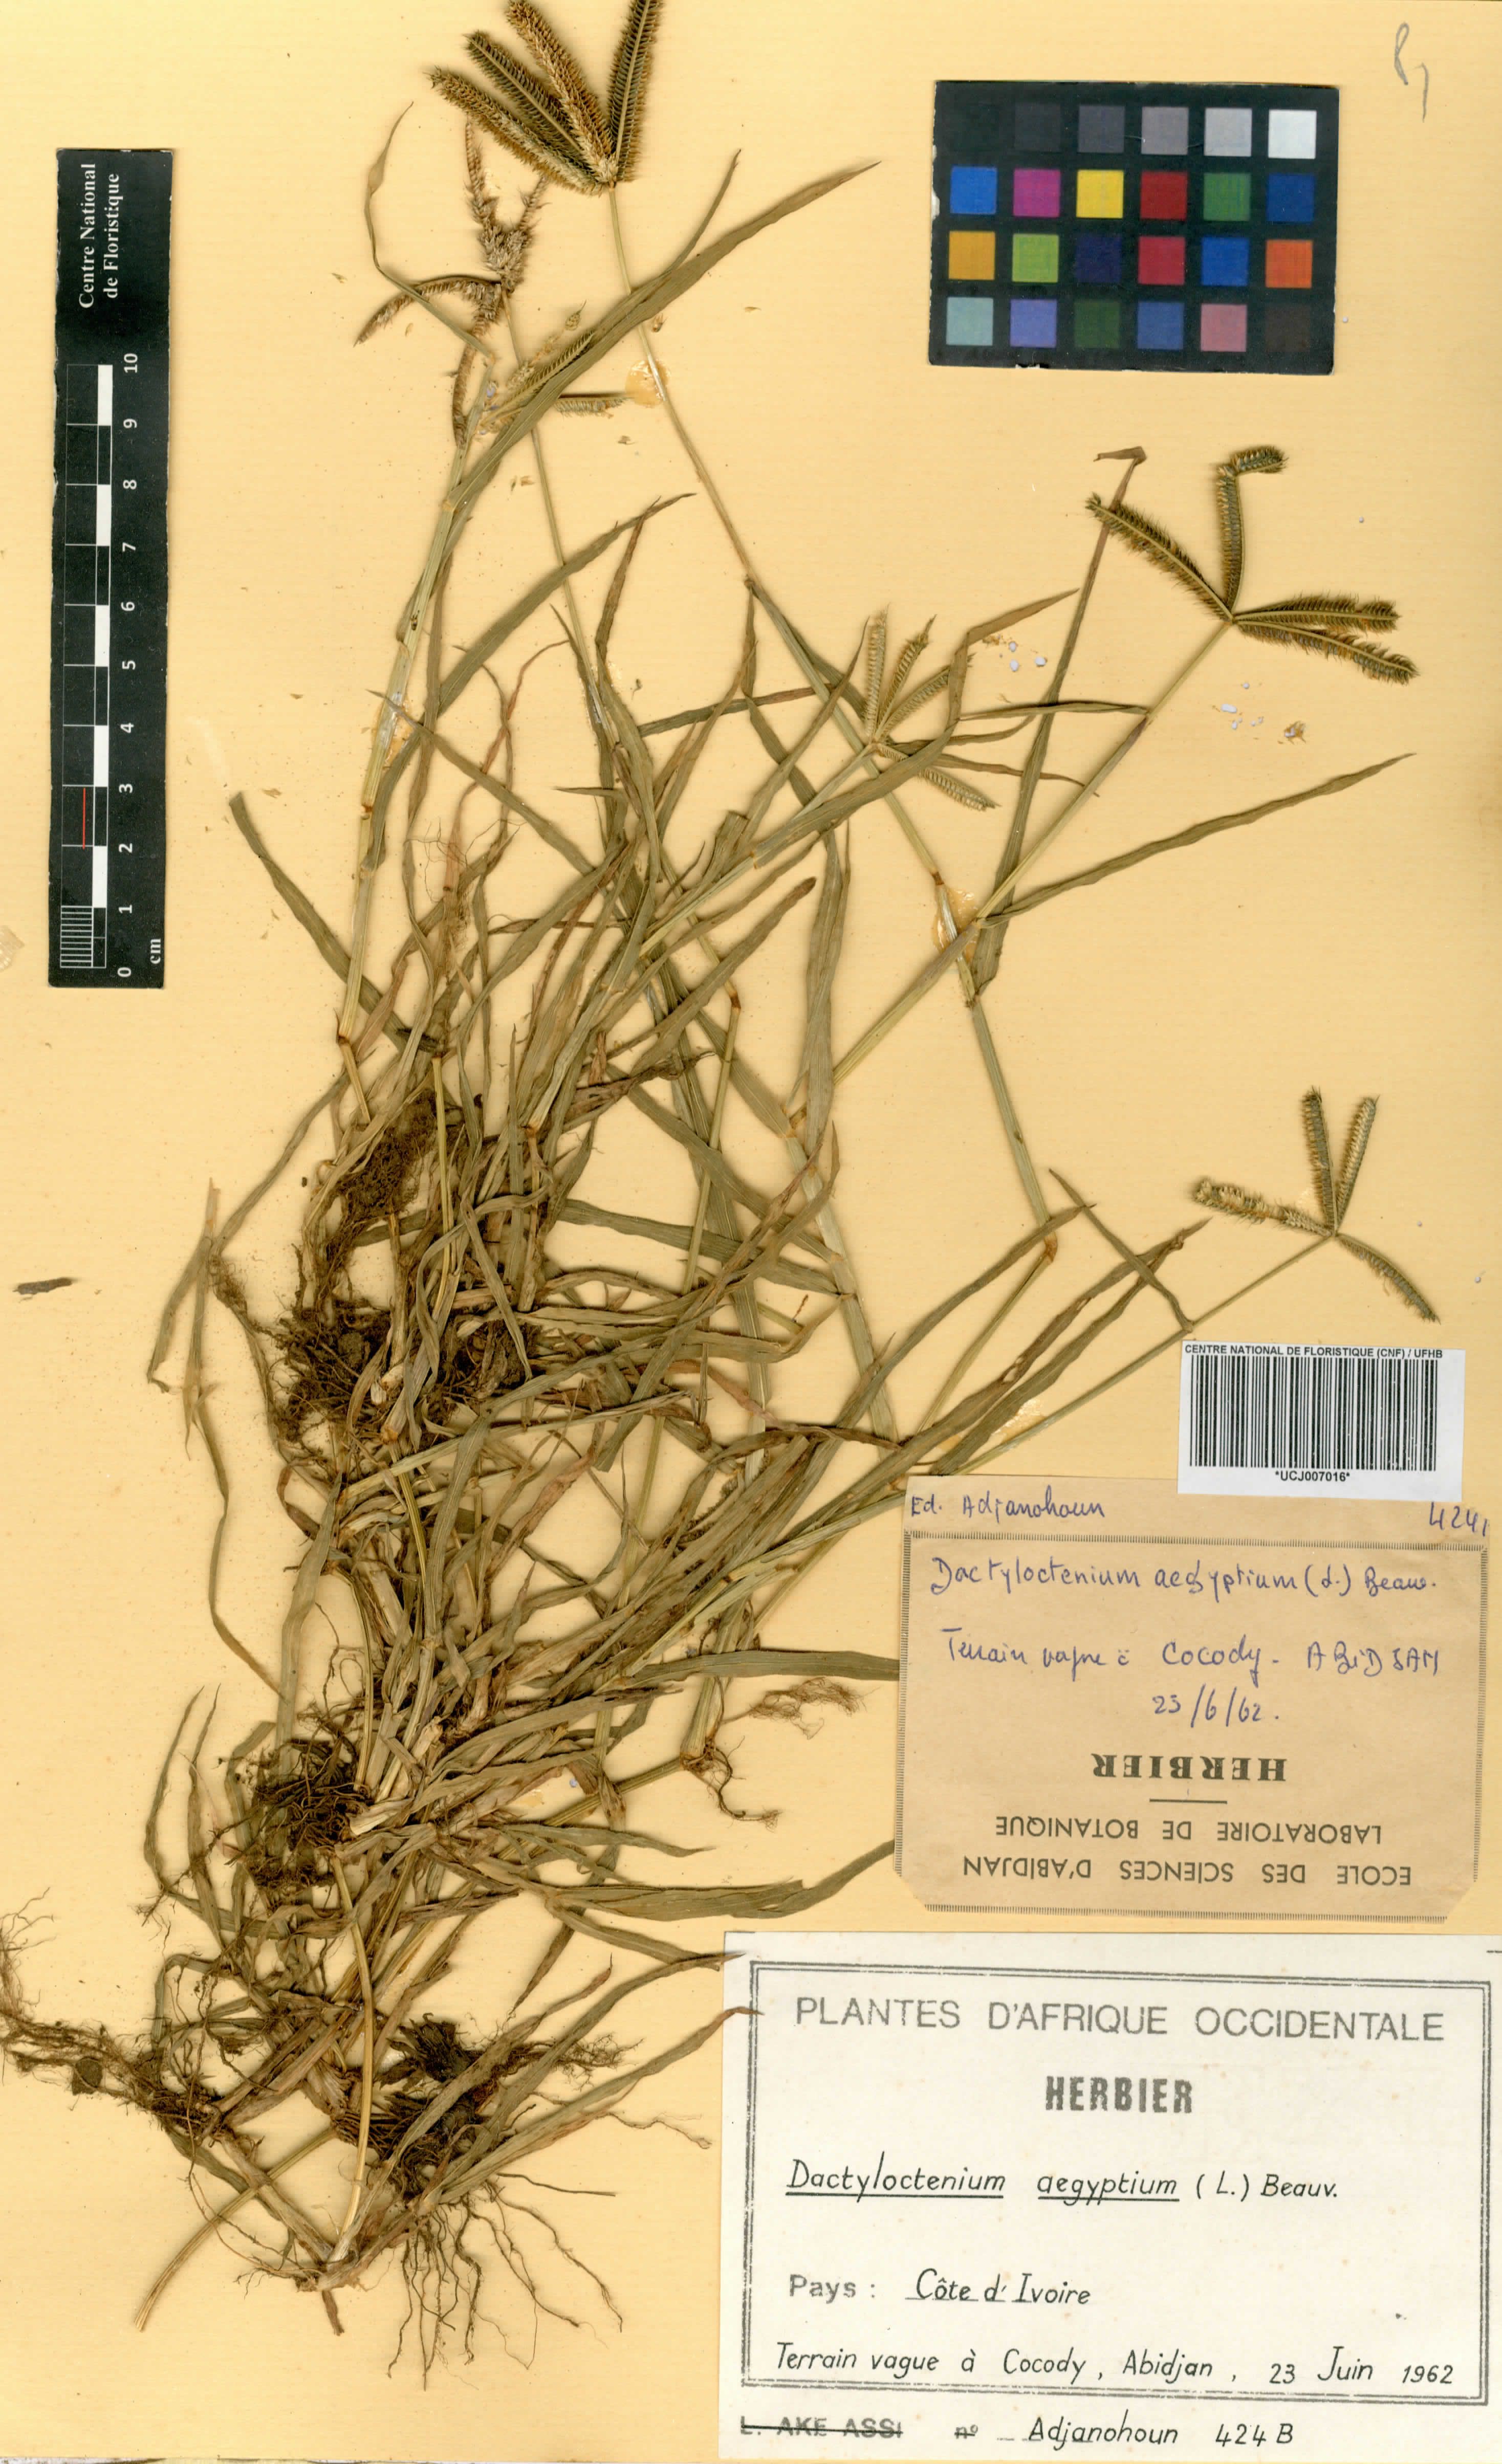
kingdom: Plantae
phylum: Tracheophyta
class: Liliopsida
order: Poales
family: Poaceae
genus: Dactyloctenium
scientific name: Dactyloctenium aegyptium
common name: Egyptian grass
